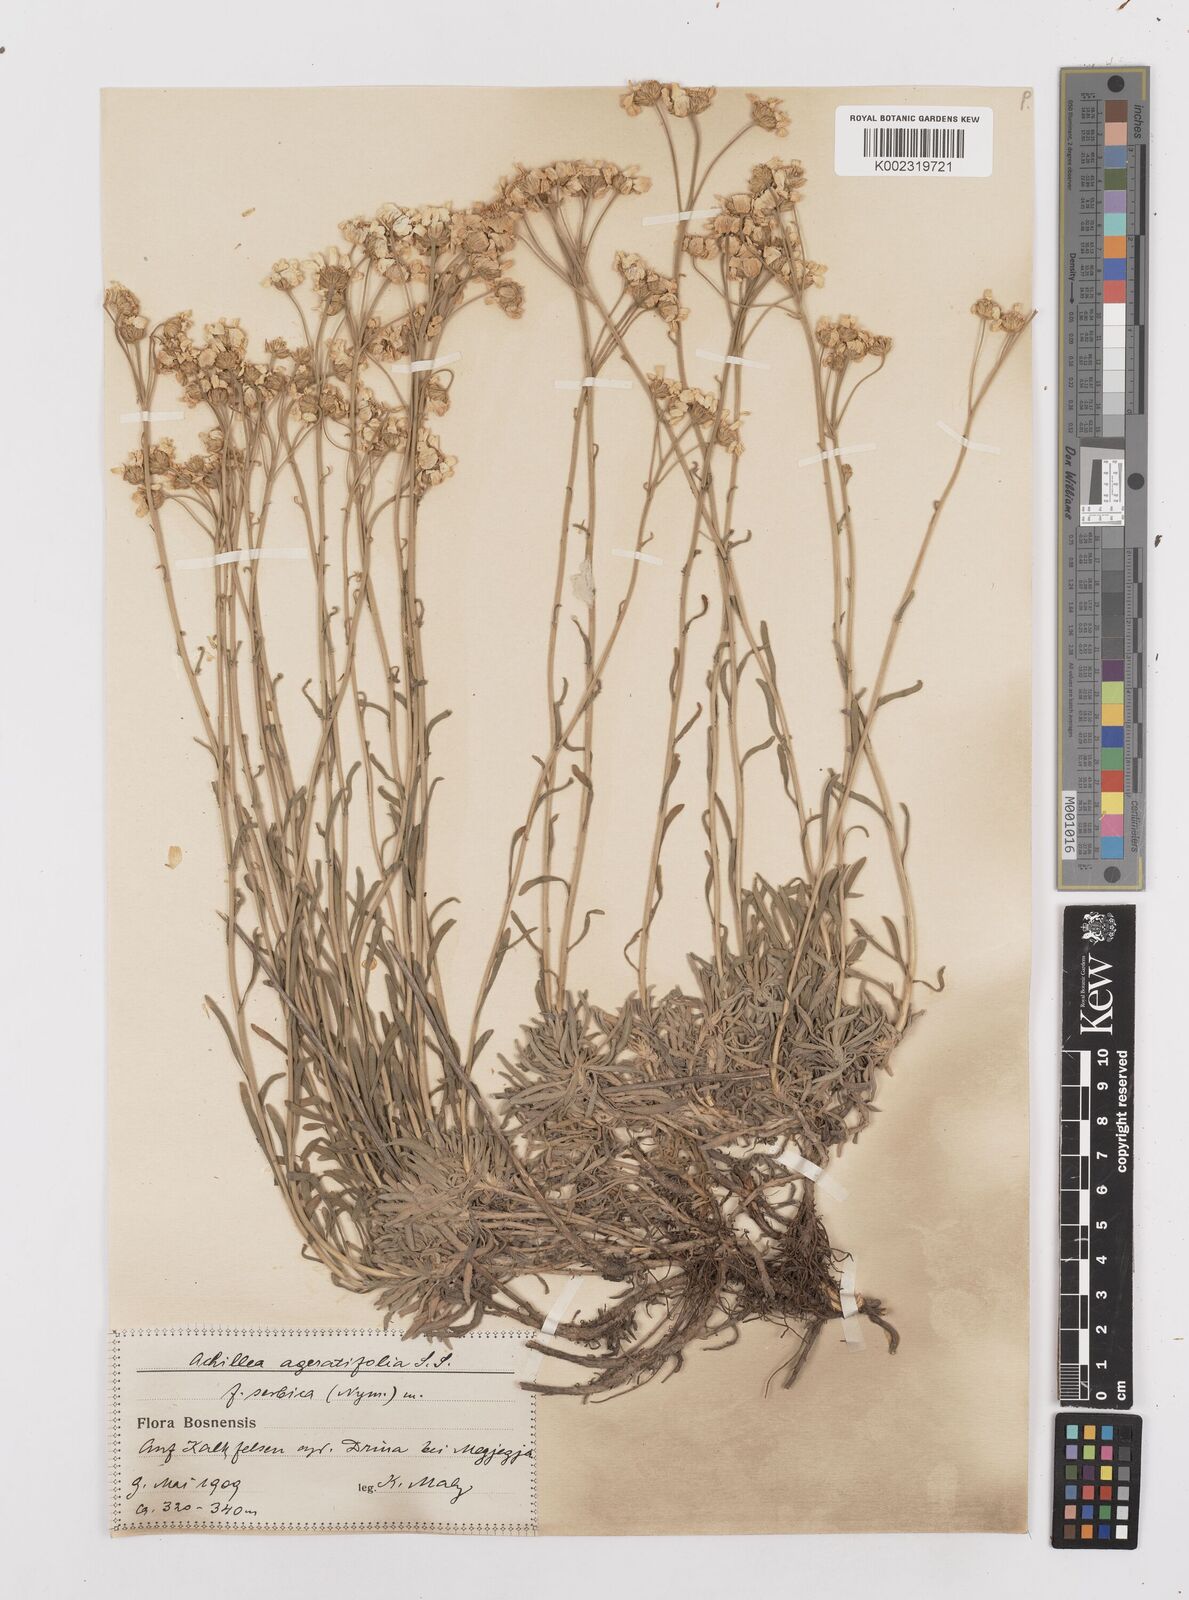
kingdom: Plantae
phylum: Tracheophyta
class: Magnoliopsida
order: Asterales
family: Asteraceae
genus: Achillea
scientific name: Achillea ageratifolia
